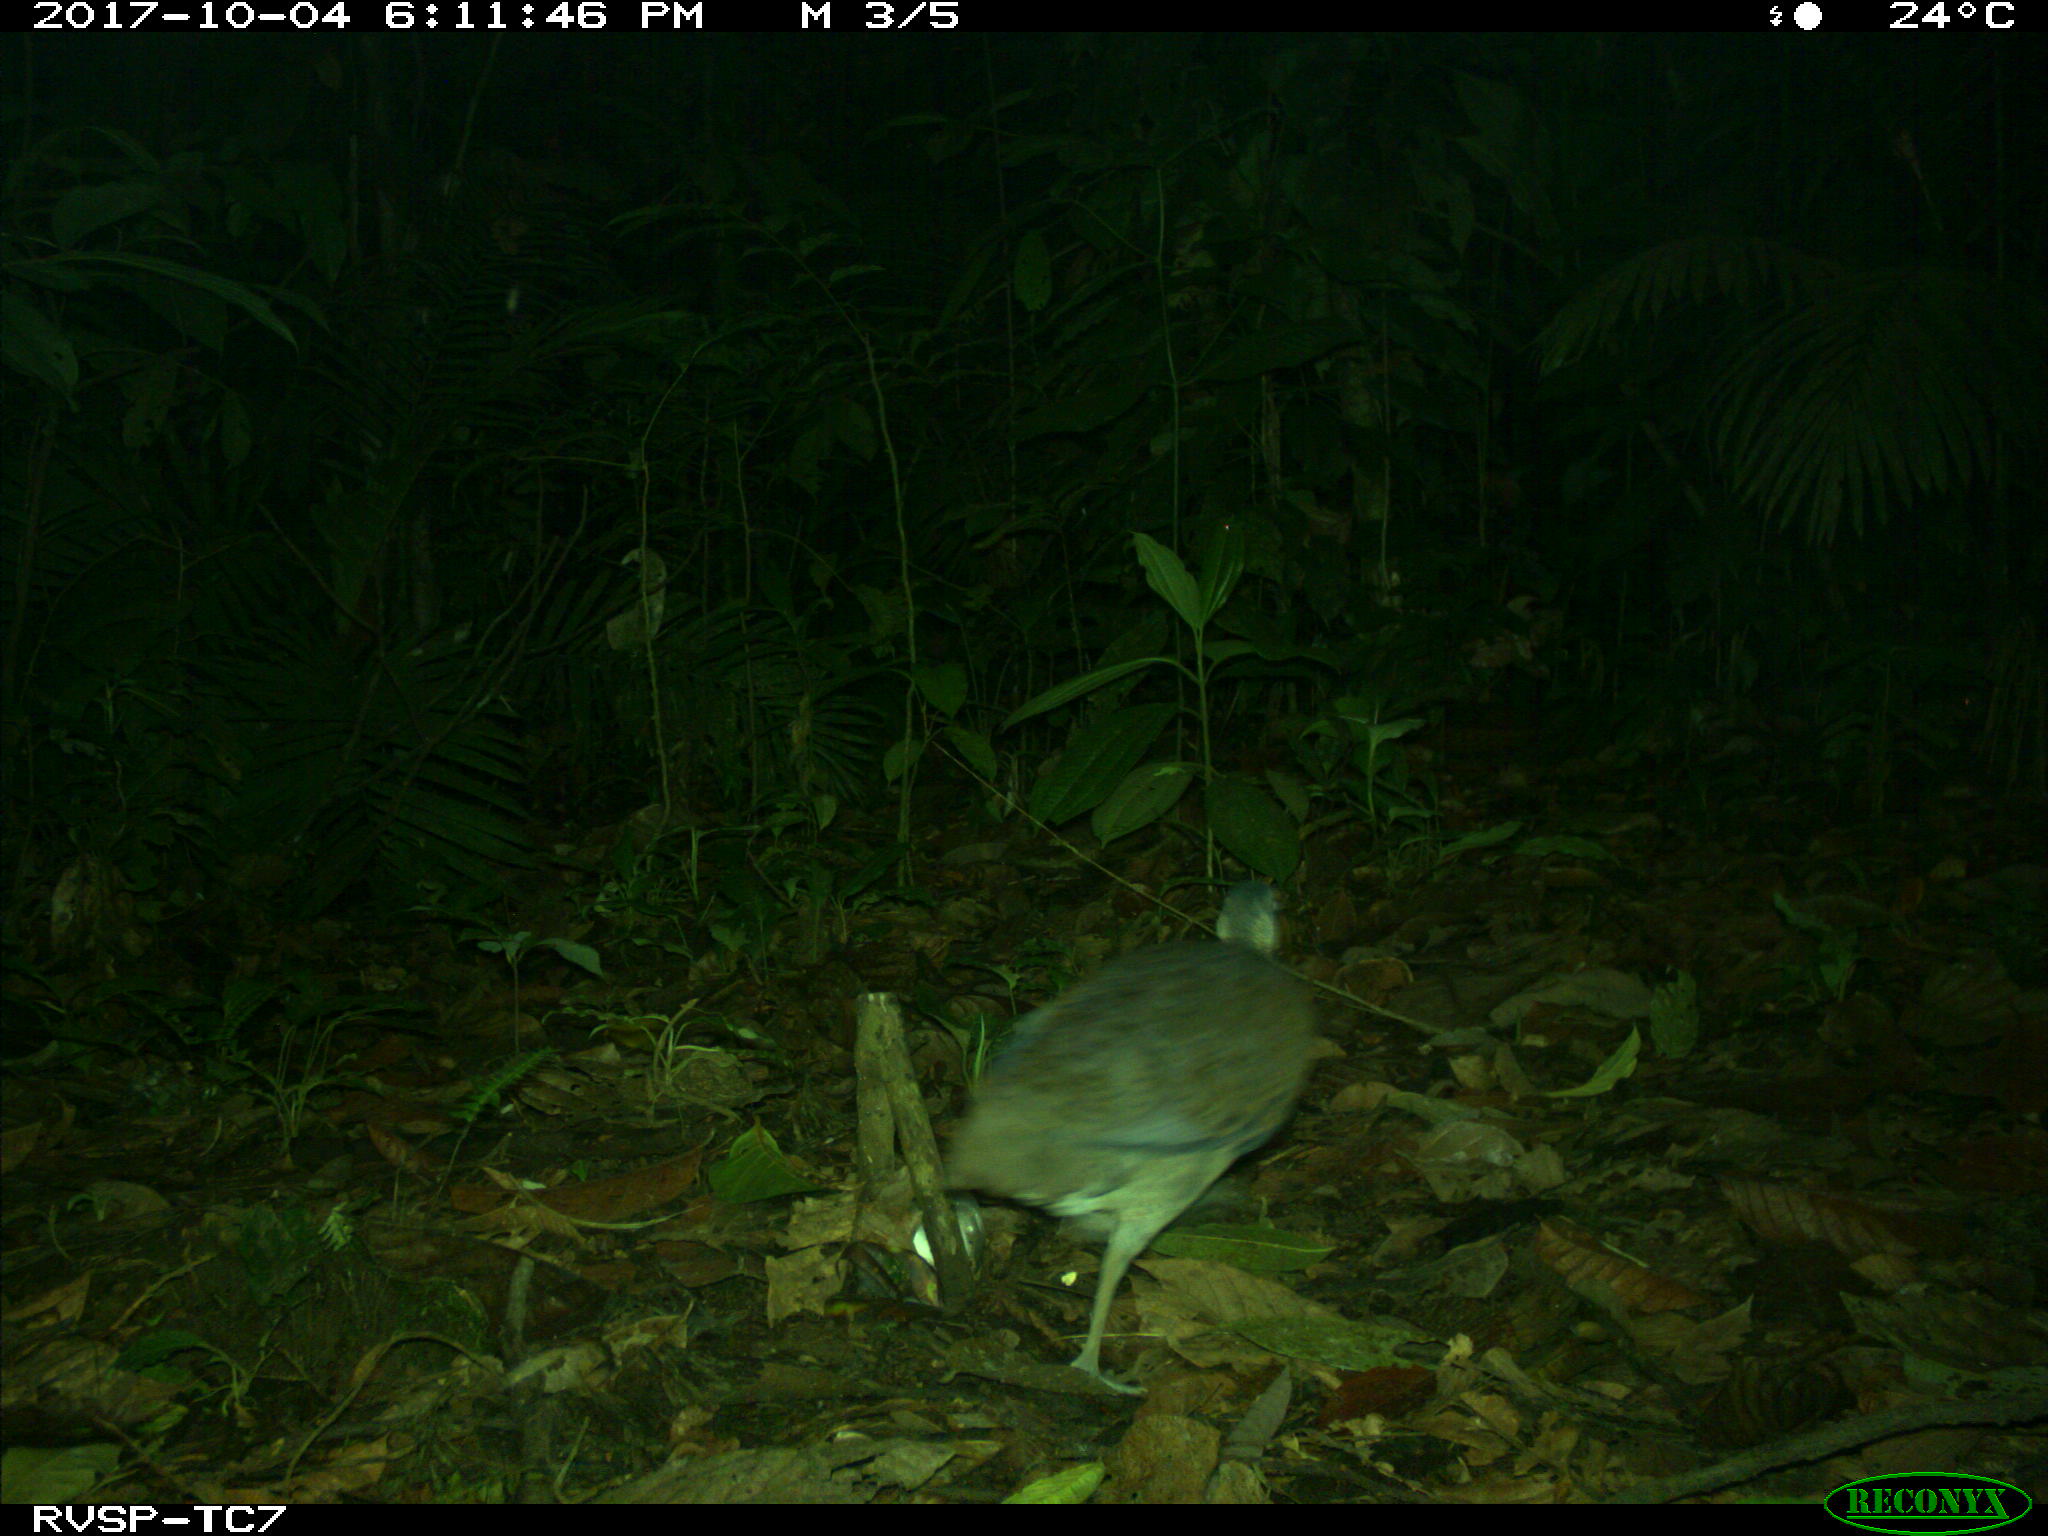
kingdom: Animalia
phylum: Chordata
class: Aves
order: Tinamiformes
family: Tinamidae
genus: Tinamus
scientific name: Tinamus major
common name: Great tinamou
